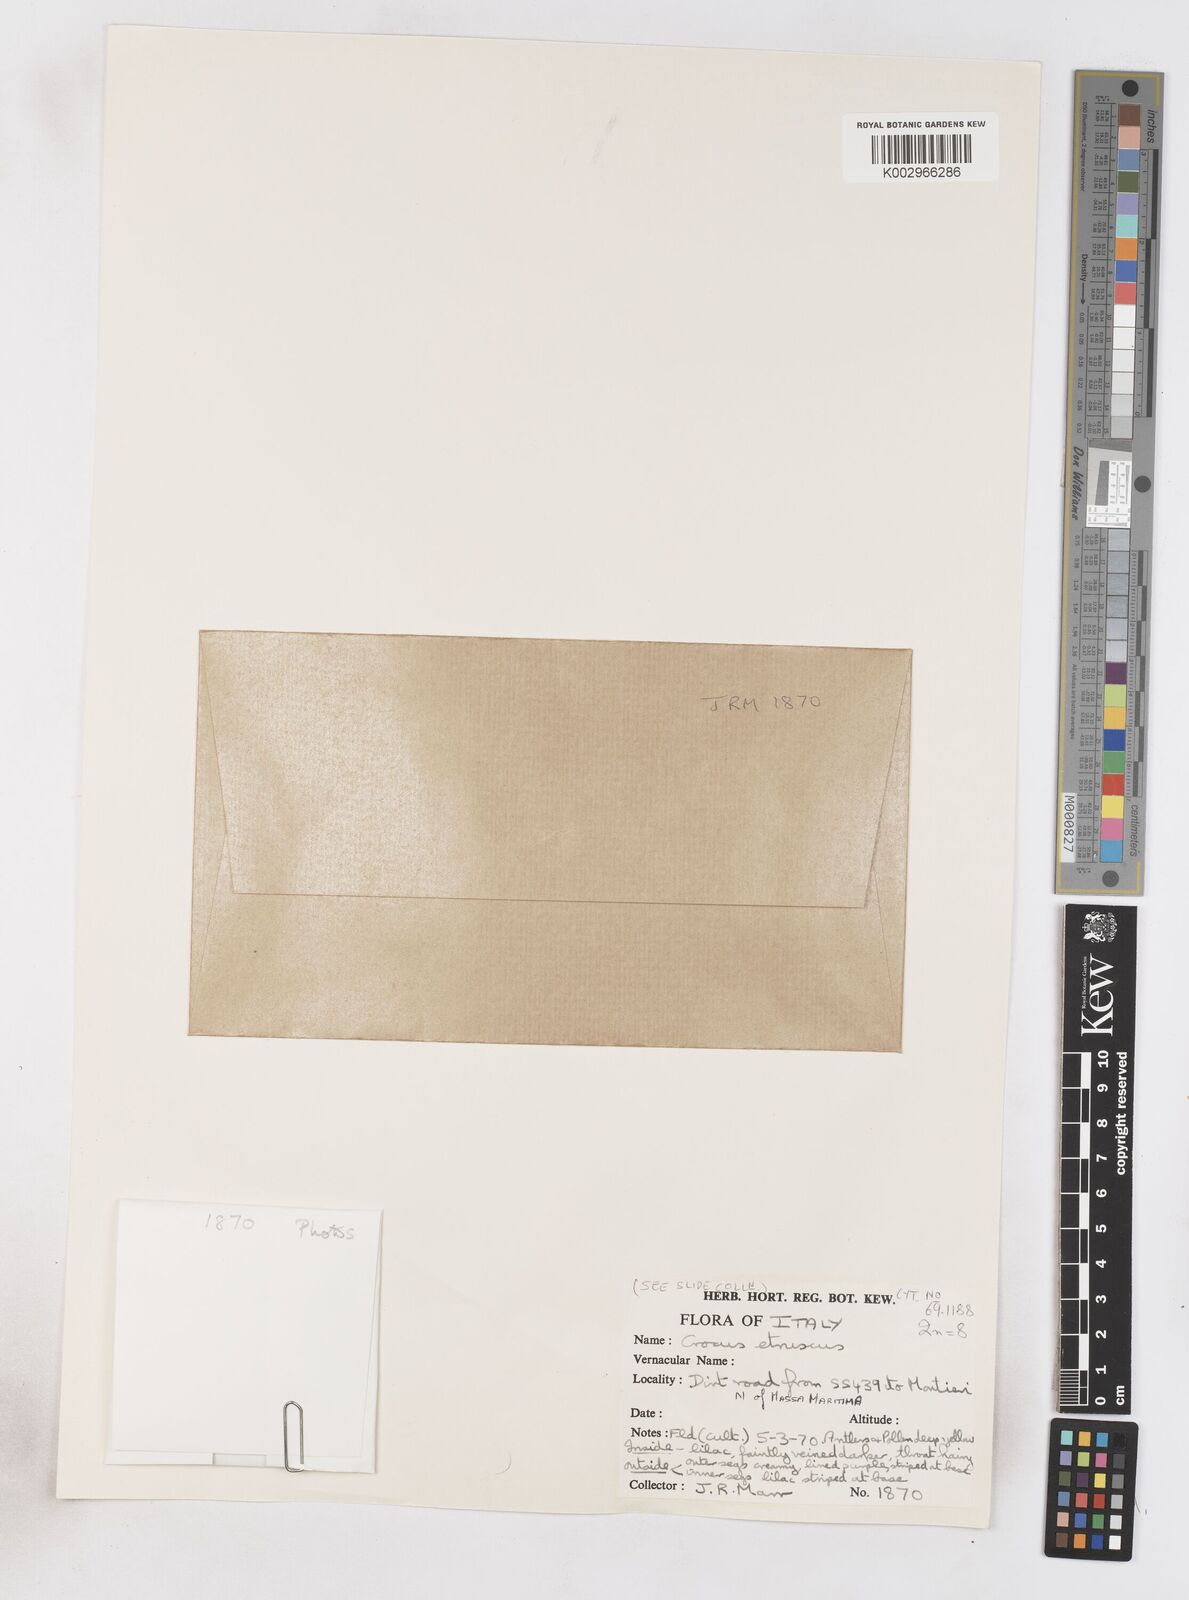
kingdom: Plantae
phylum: Tracheophyta
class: Liliopsida
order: Asparagales
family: Iridaceae
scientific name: Iridaceae
